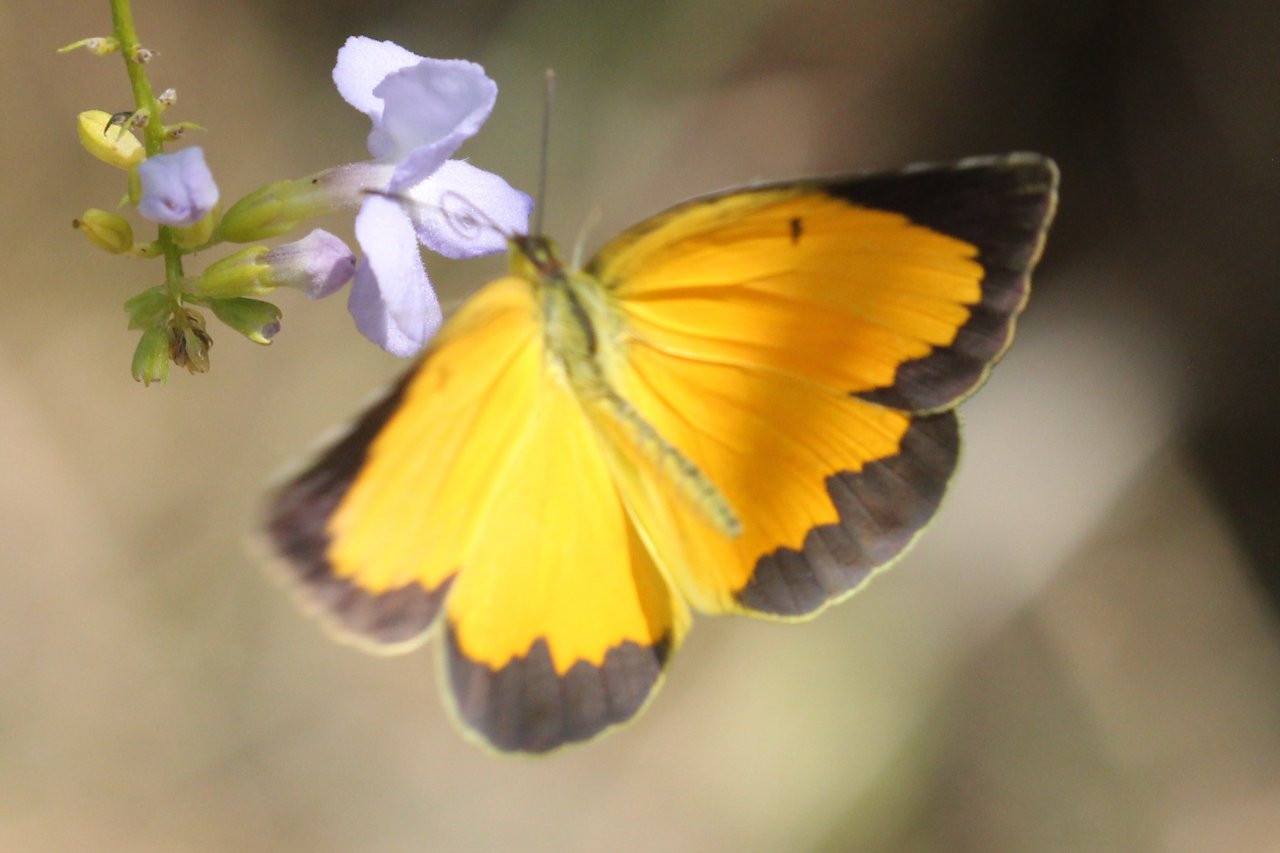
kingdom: Animalia
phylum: Arthropoda
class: Insecta
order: Lepidoptera
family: Pieridae
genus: Abaeis
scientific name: Abaeis nicippe
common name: Sleepy Orange
